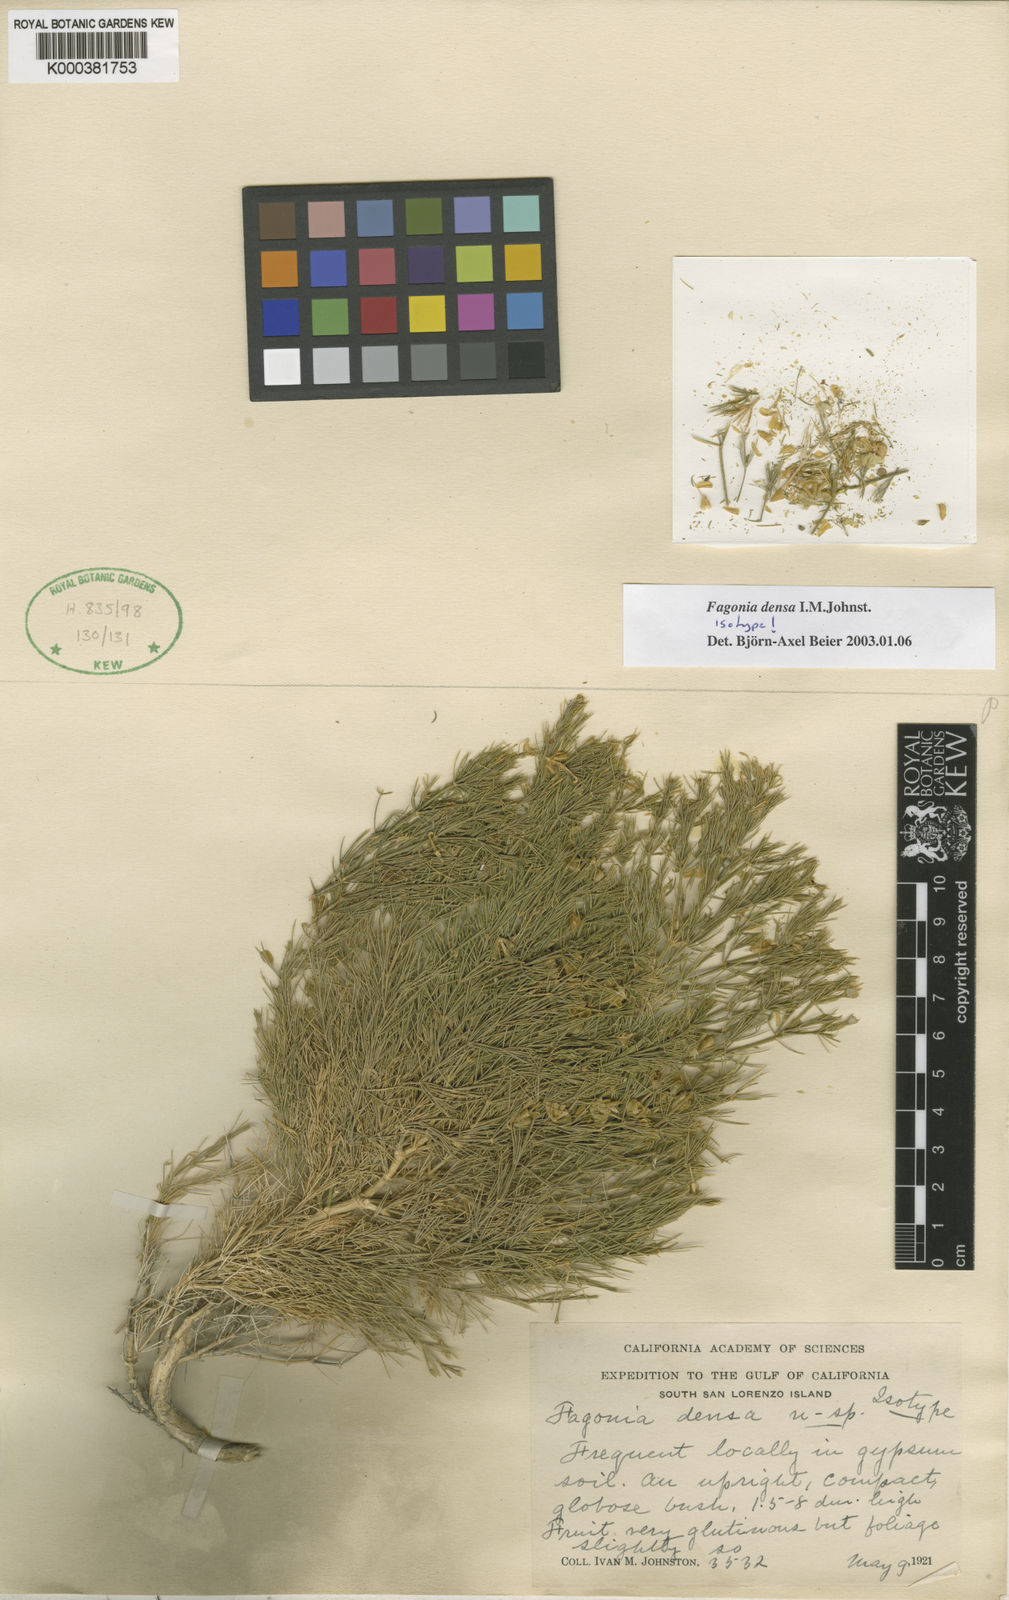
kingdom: Plantae
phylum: Tracheophyta
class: Magnoliopsida
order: Zygophyllales
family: Zygophyllaceae
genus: Fagonia
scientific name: Fagonia densa
